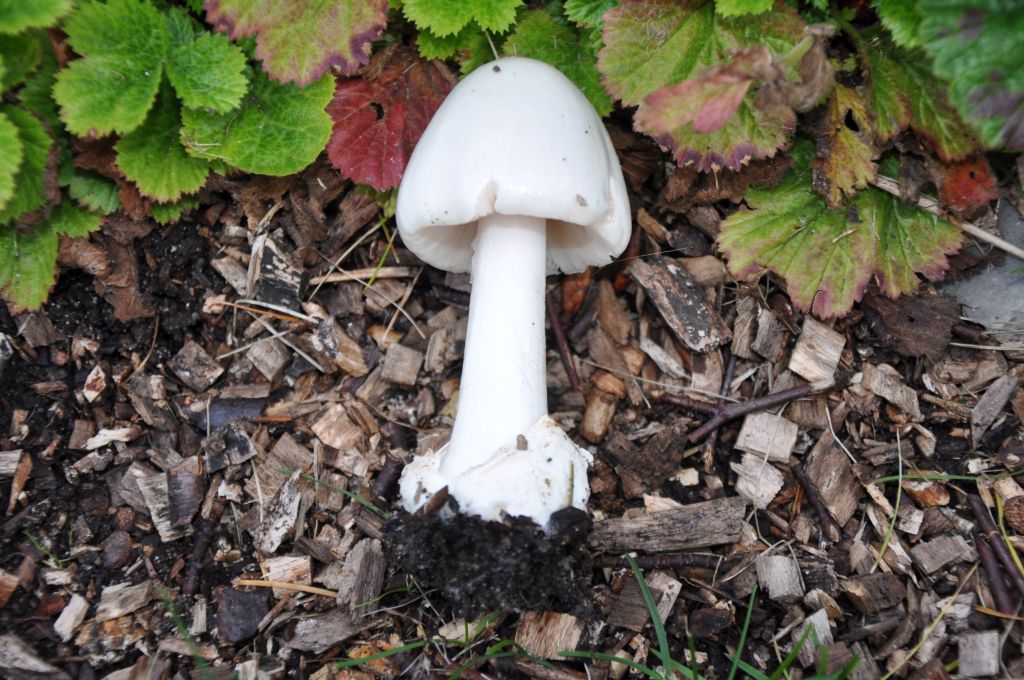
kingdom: Fungi
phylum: Basidiomycota
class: Agaricomycetes
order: Agaricales
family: Pluteaceae
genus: Volvopluteus
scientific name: Volvopluteus gloiocephalus
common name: høj posesvamp
